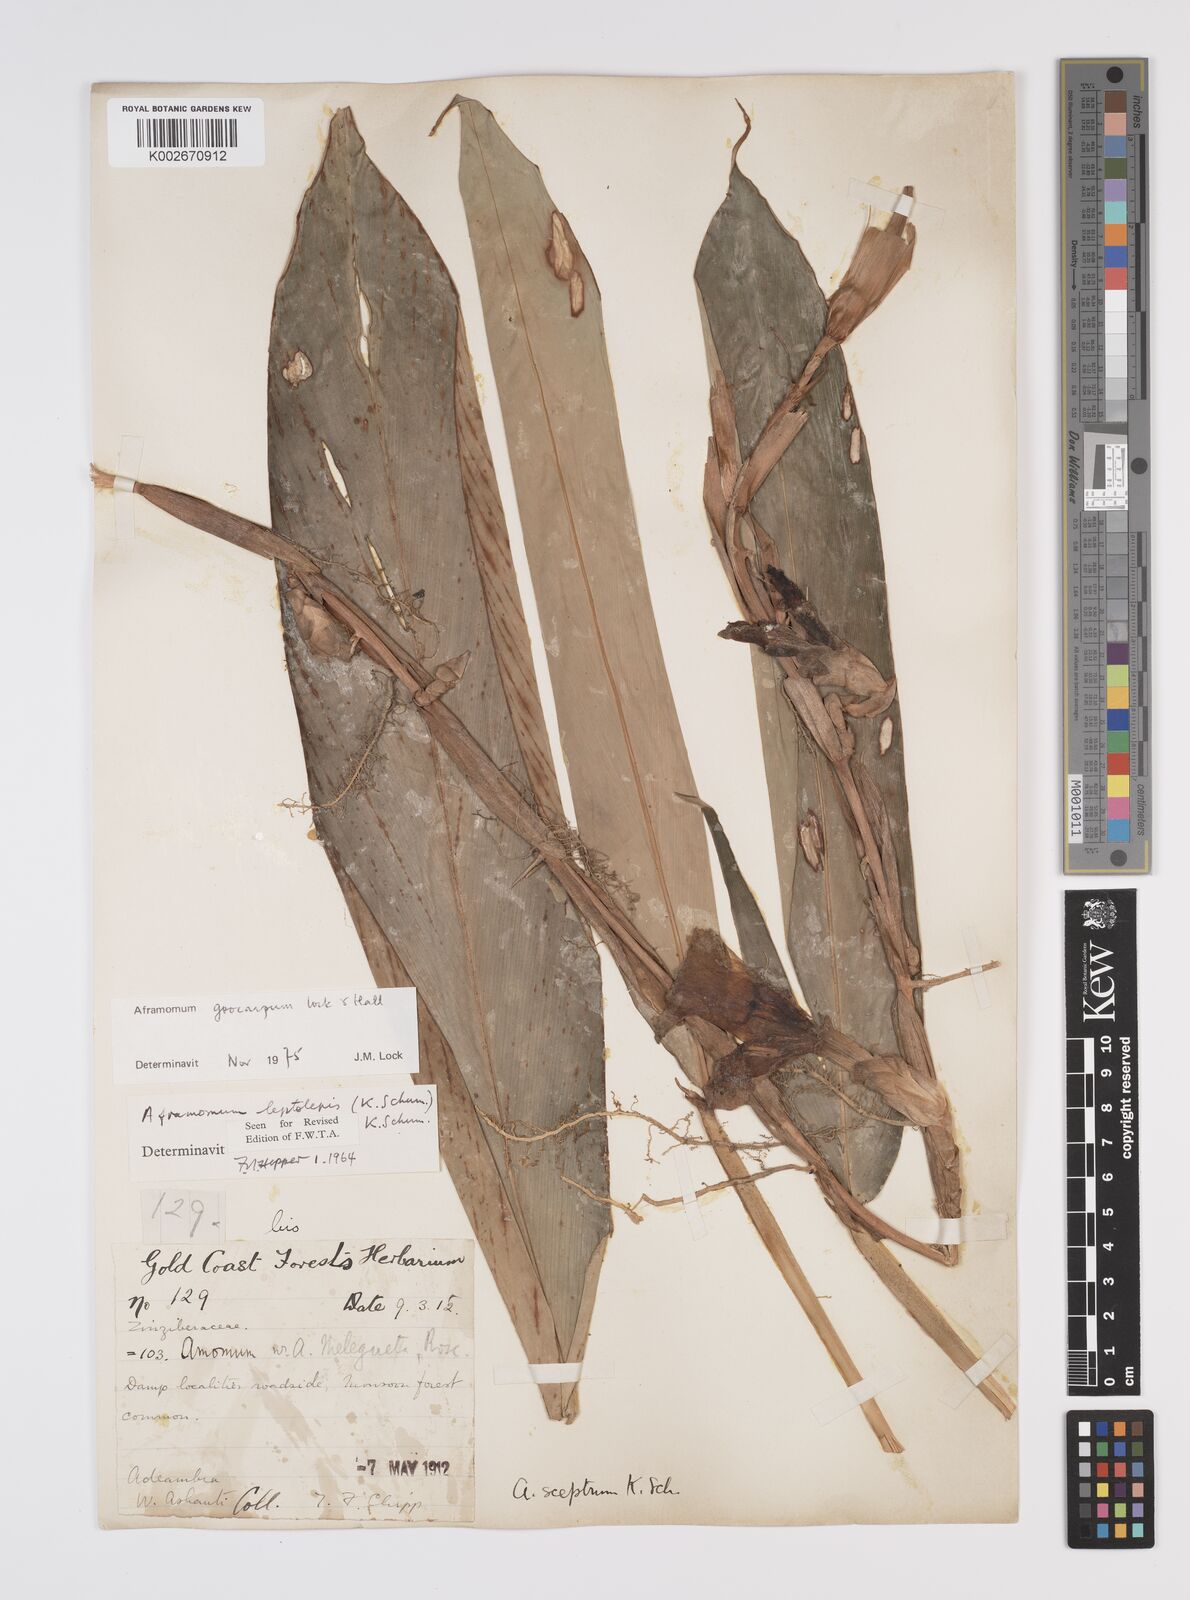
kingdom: Plantae
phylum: Tracheophyta
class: Liliopsida
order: Zingiberales
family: Zingiberaceae
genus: Aframomum
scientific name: Aframomum limbatum
